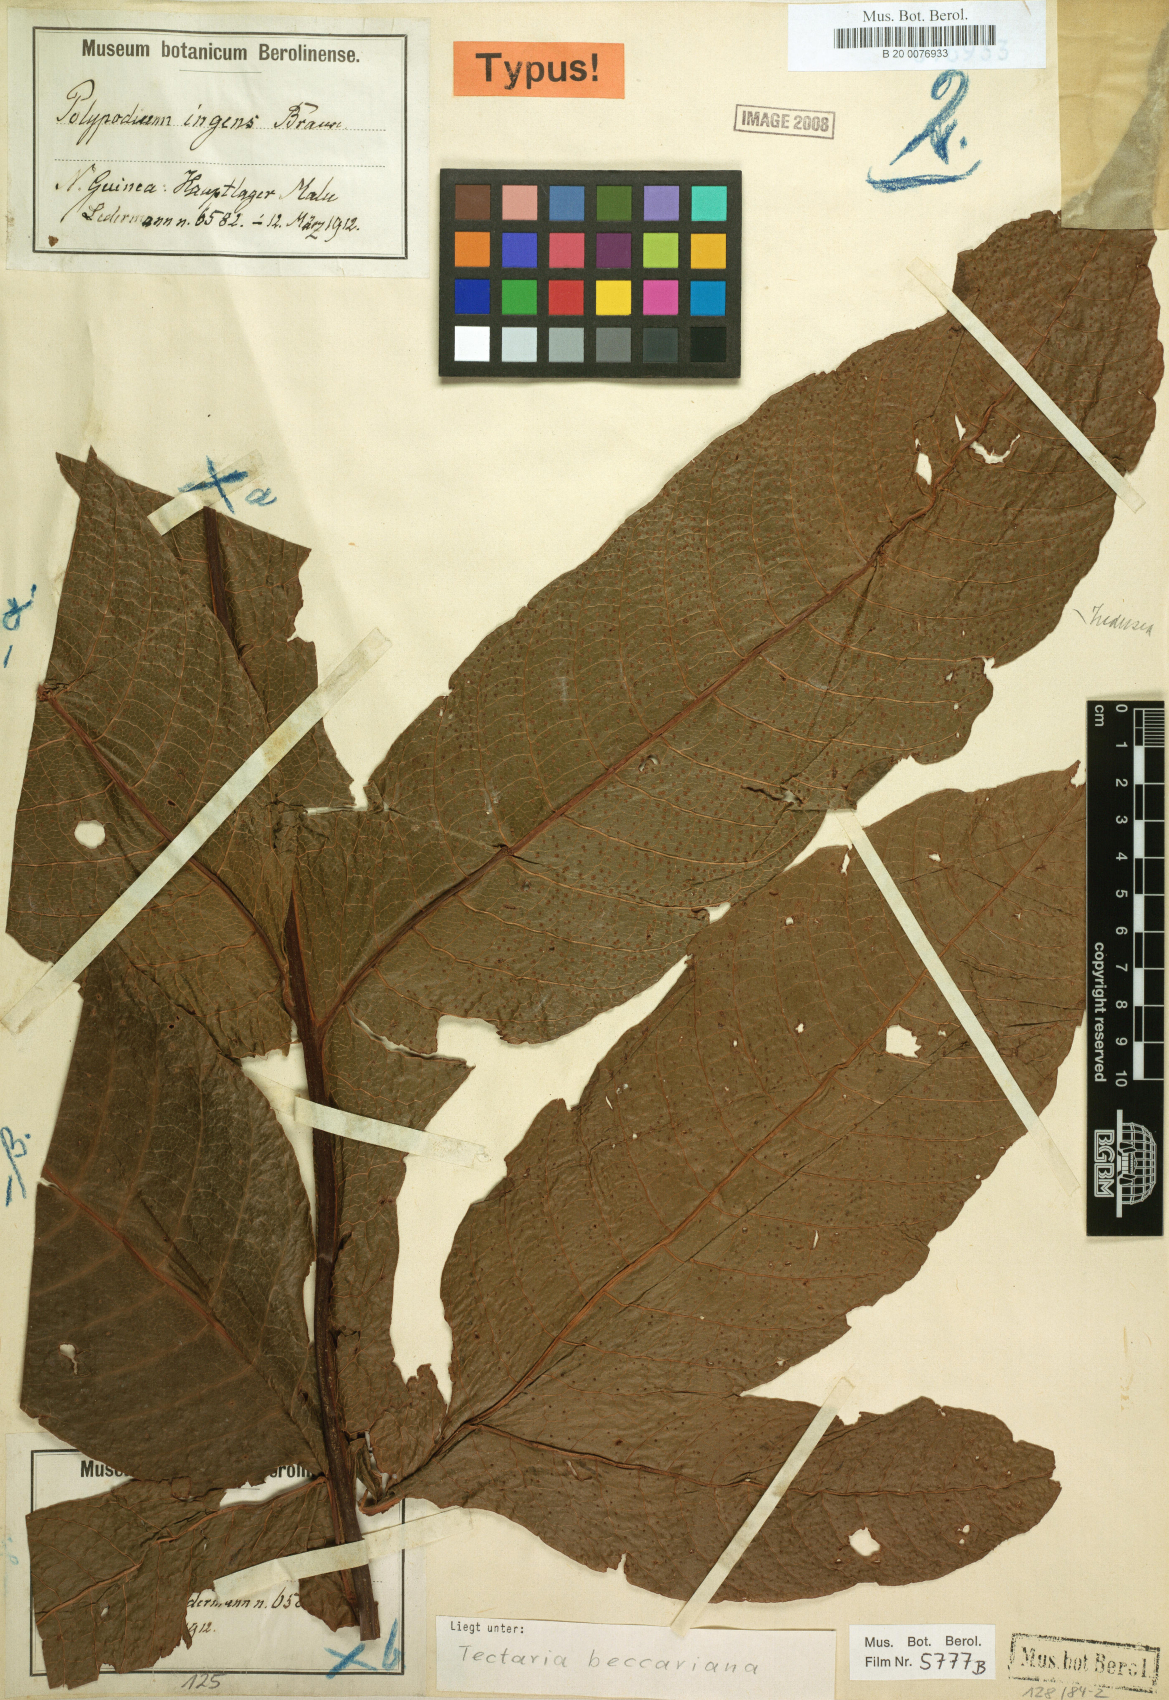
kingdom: Plantae
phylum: Tracheophyta
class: Polypodiopsida
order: Polypodiales
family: Tectariaceae
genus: Tectaria
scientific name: Tectaria beccariana
